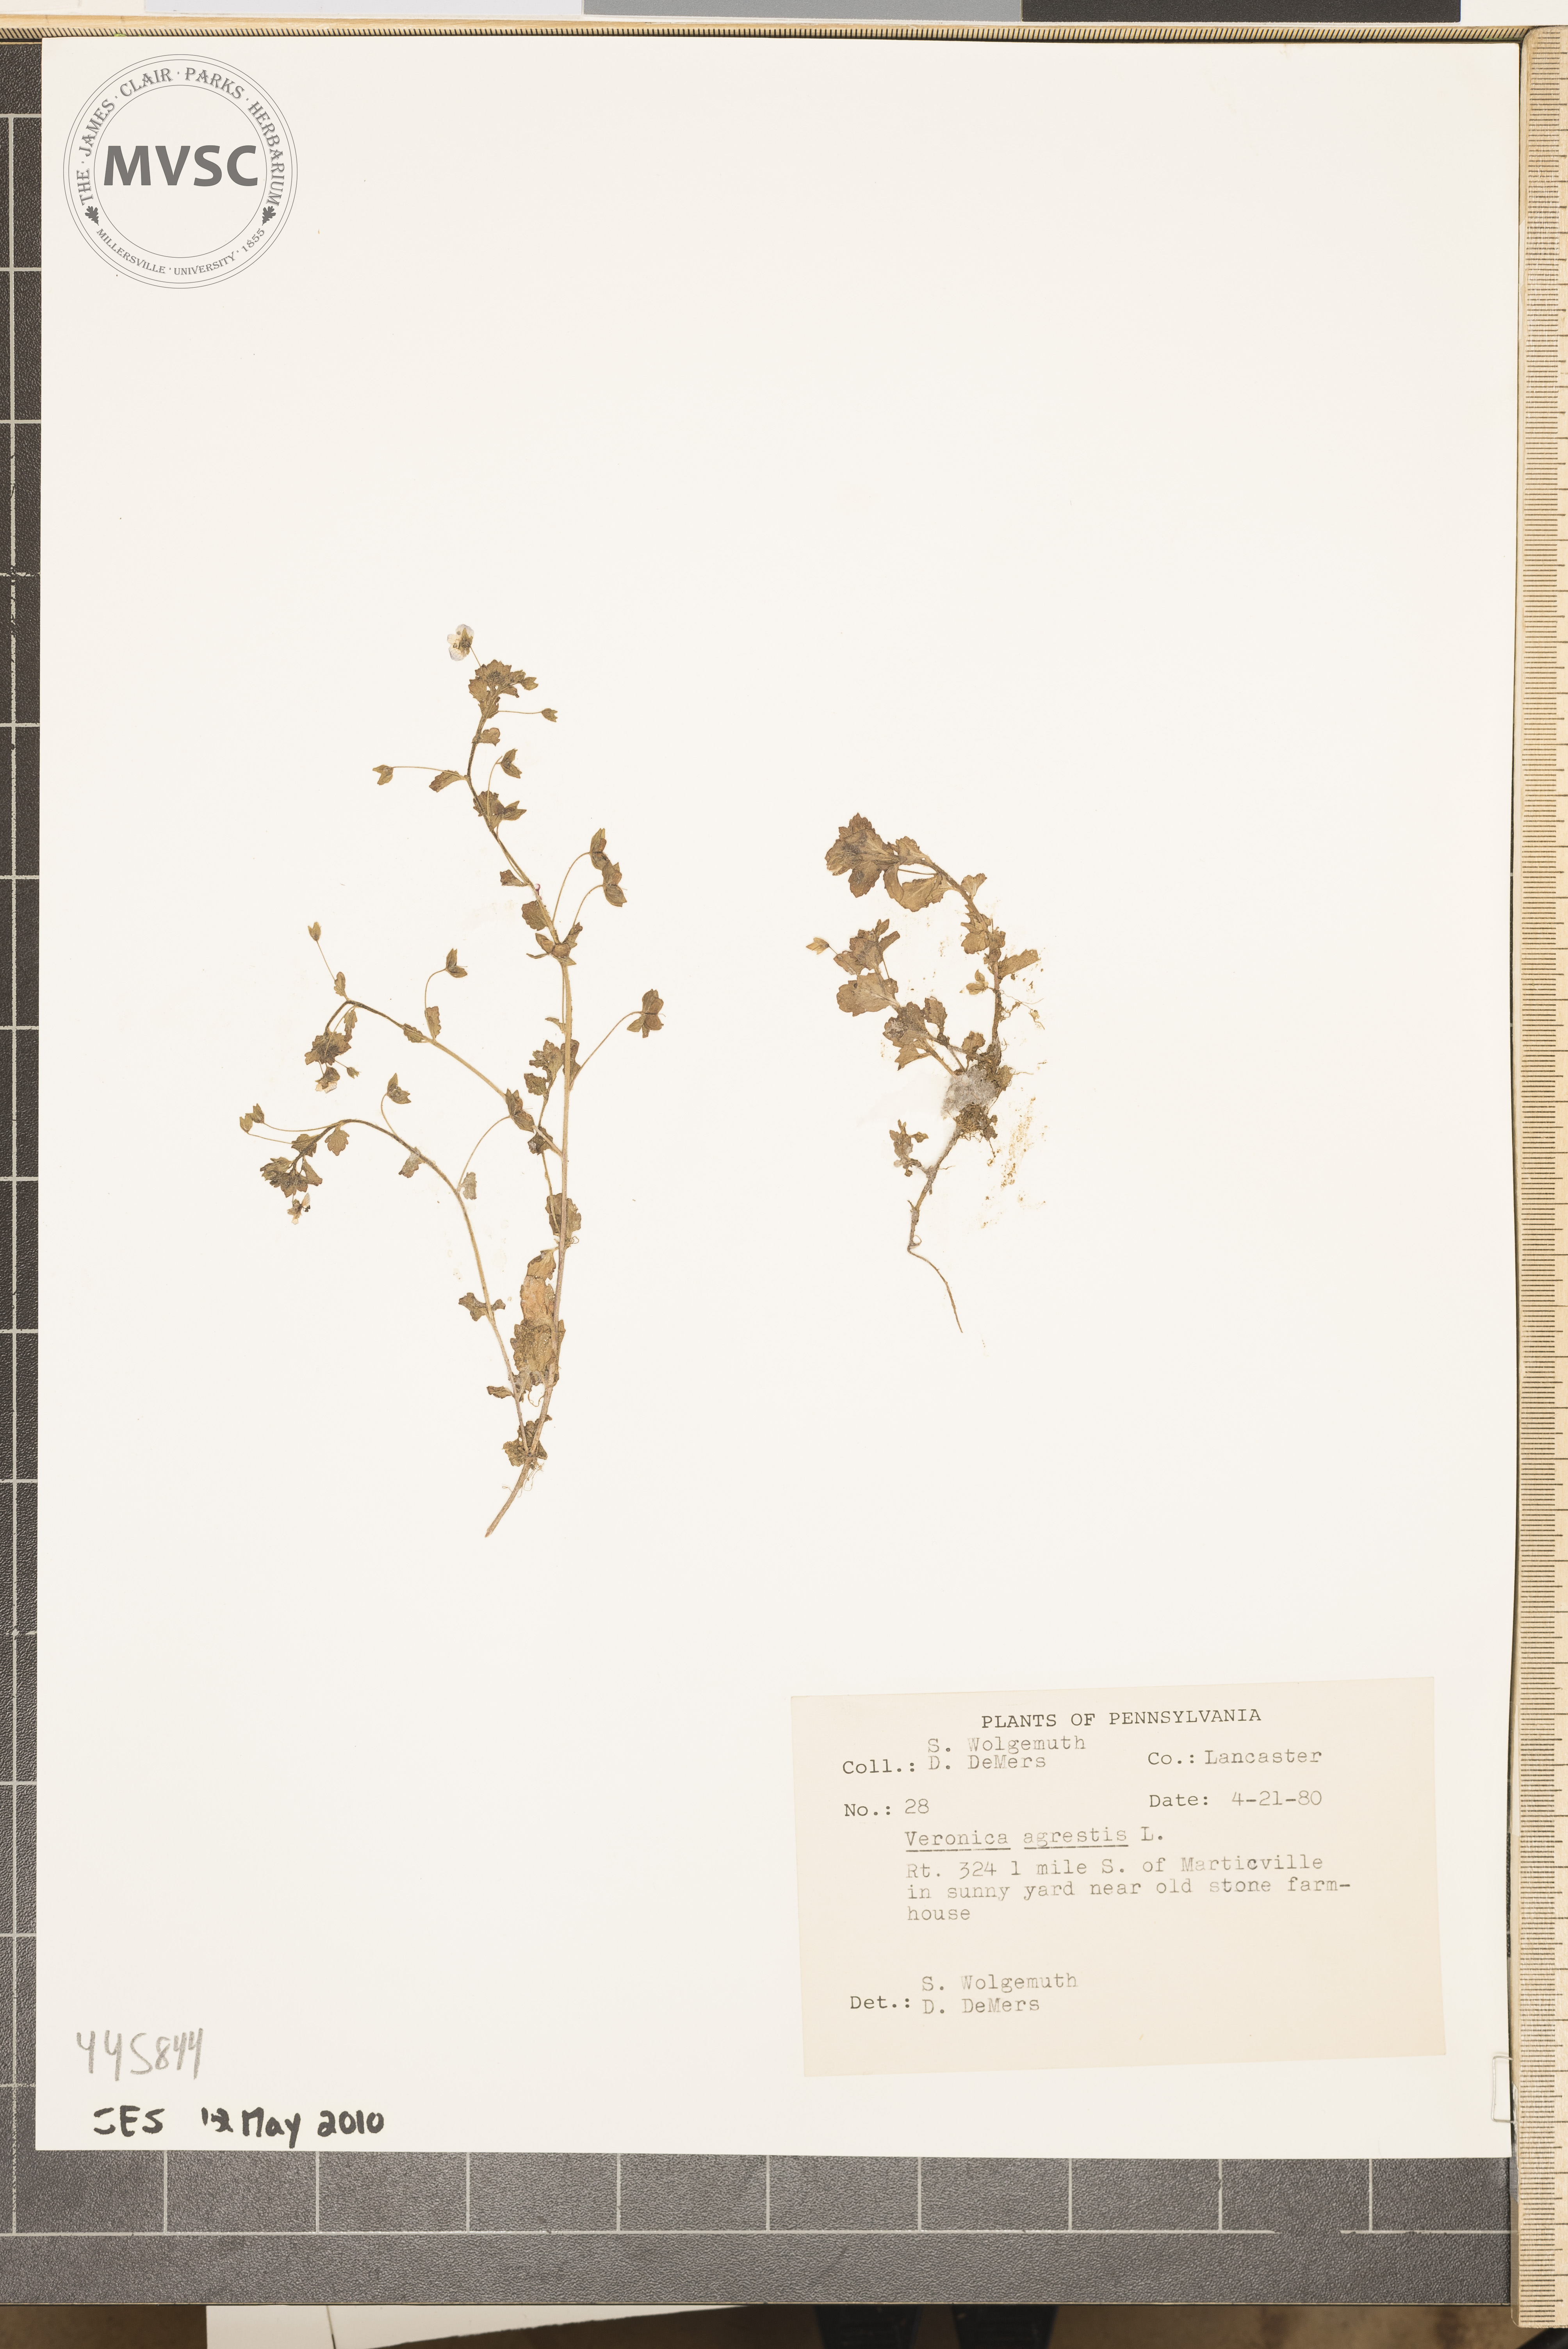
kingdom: Plantae
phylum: Tracheophyta
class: Magnoliopsida
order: Lamiales
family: Plantaginaceae
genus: Veronica
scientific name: Veronica agrestis
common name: Green field-speedwell
